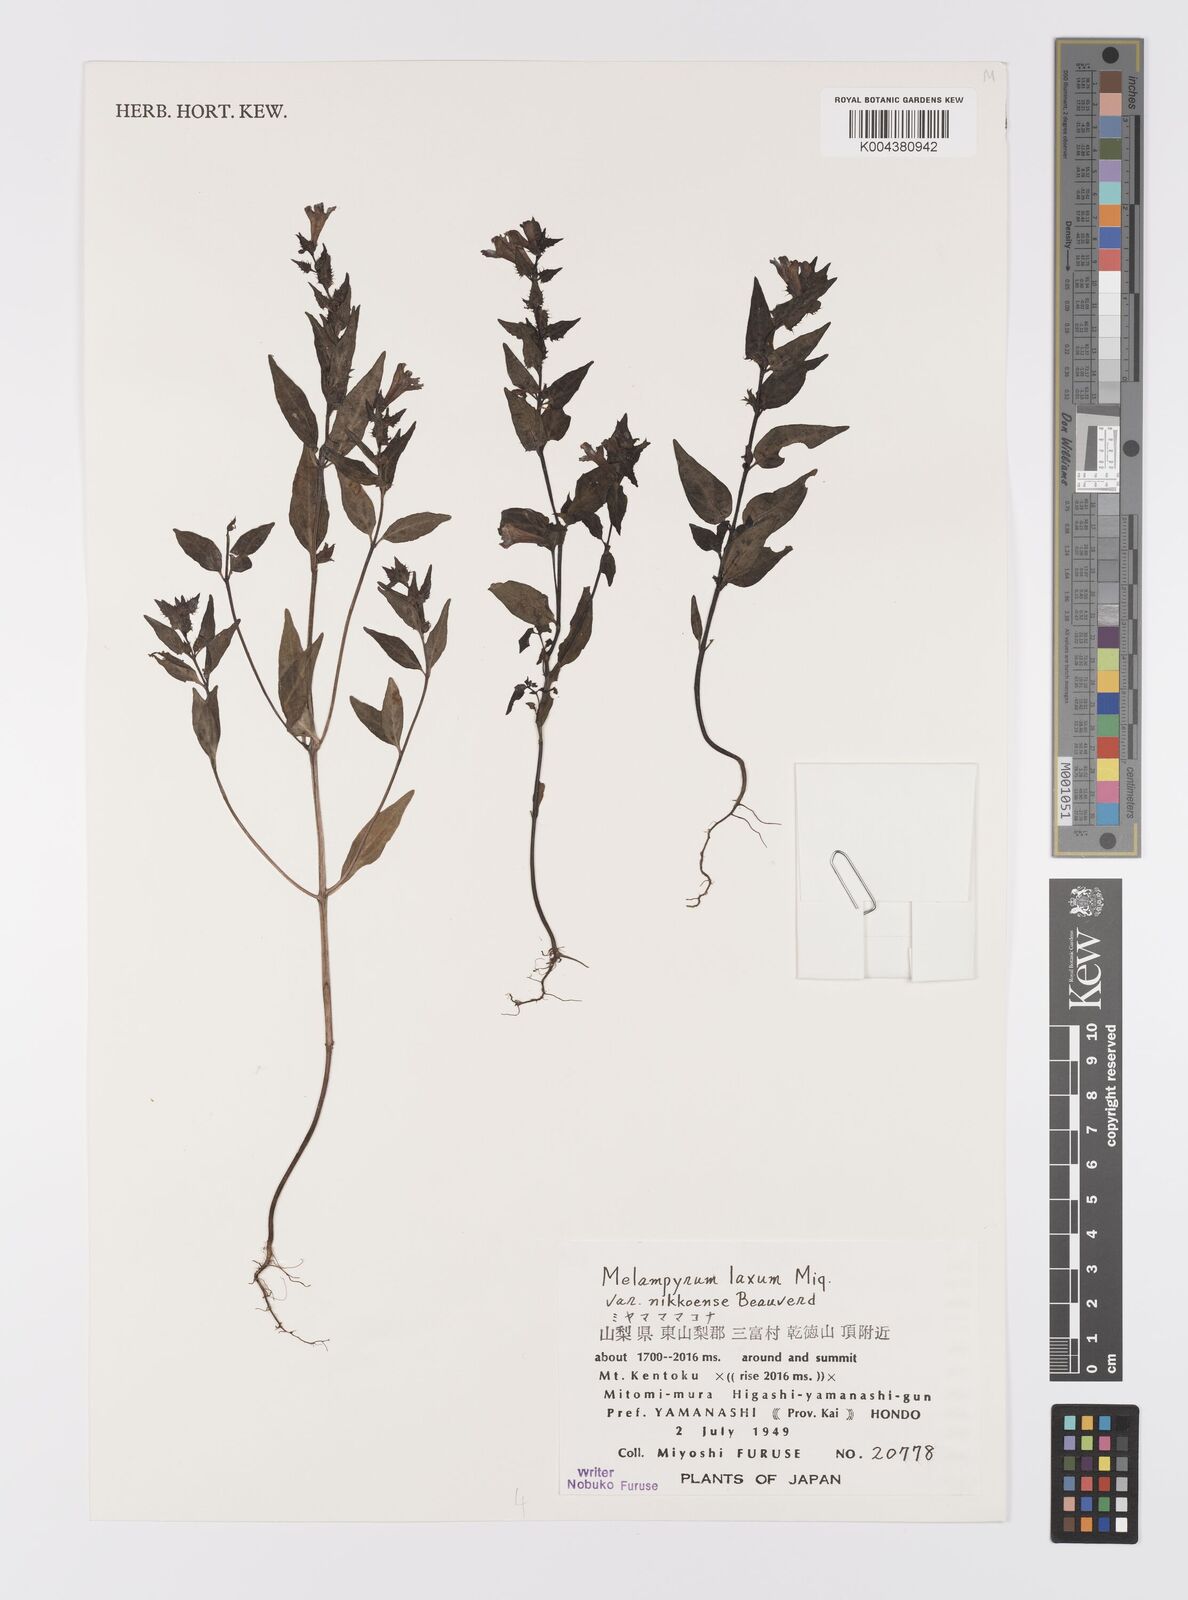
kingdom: Plantae
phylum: Tracheophyta
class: Magnoliopsida
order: Lamiales
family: Orobanchaceae
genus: Melampyrum
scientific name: Melampyrum laxum
